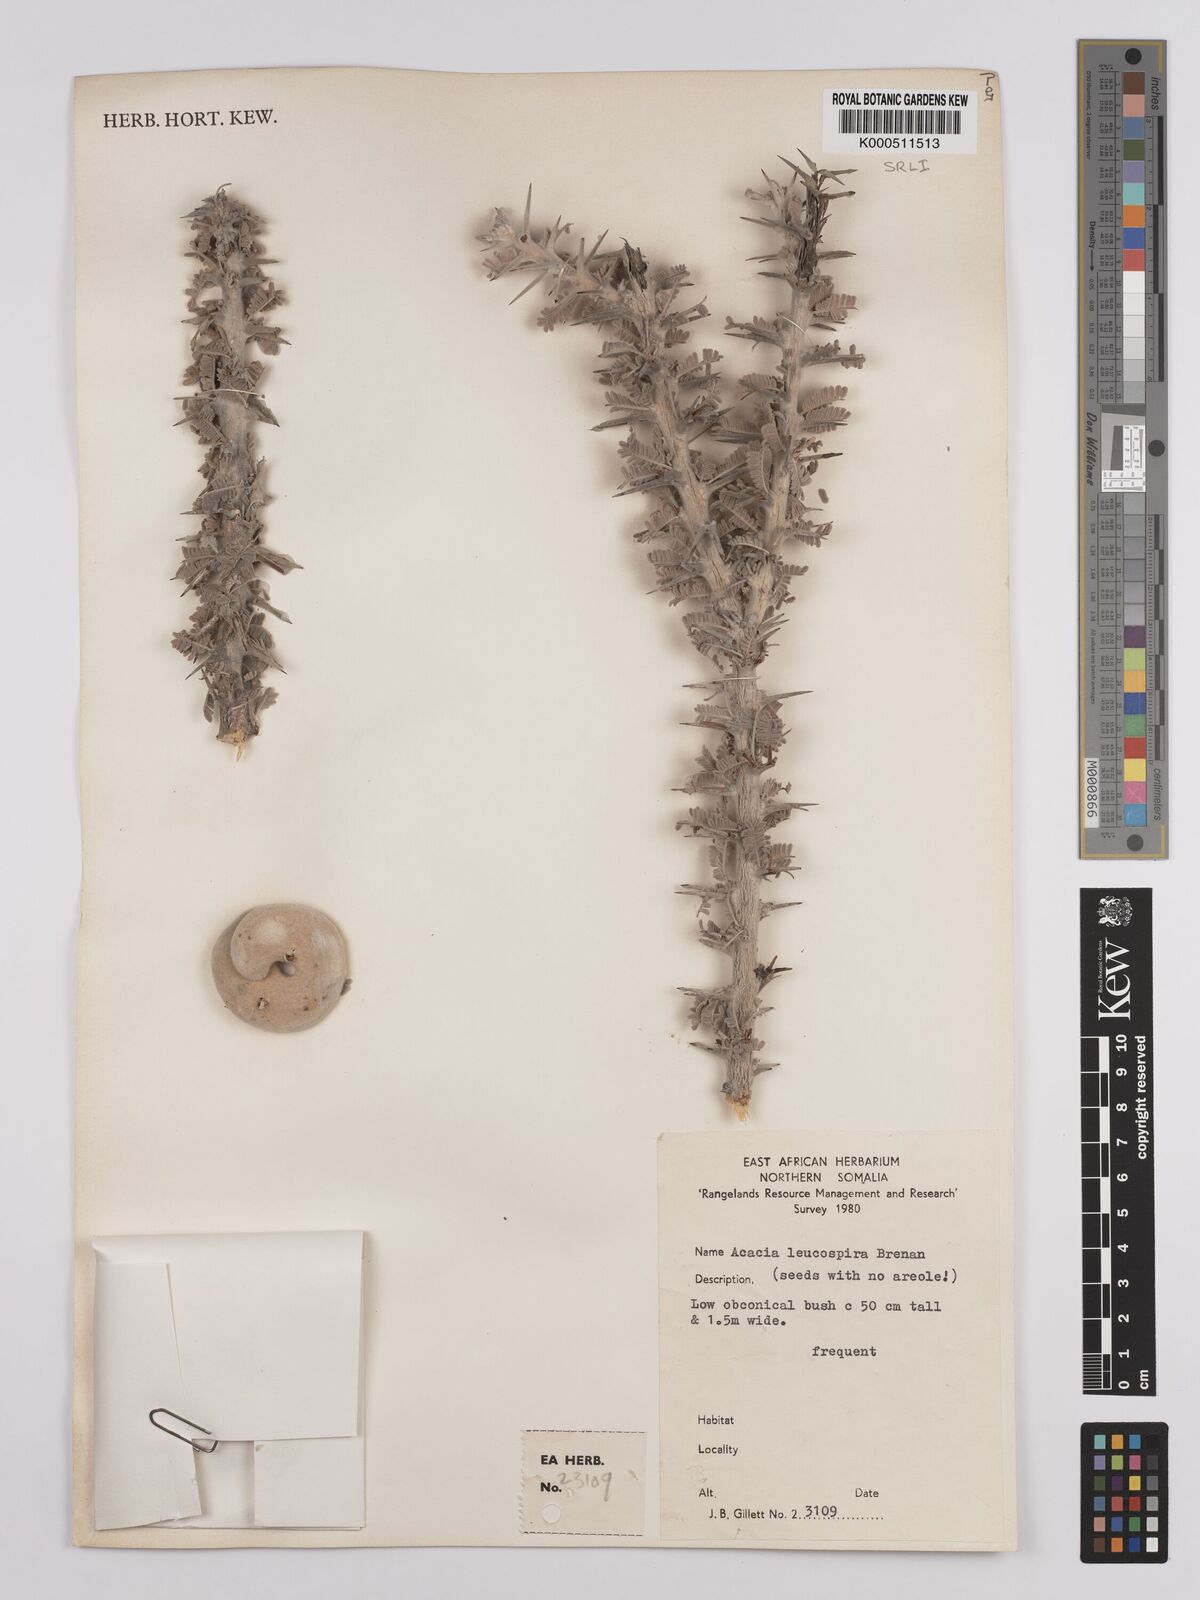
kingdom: Plantae
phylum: Tracheophyta
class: Magnoliopsida
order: Fabales
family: Fabaceae
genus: Vachellia
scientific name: Vachellia leucospira
